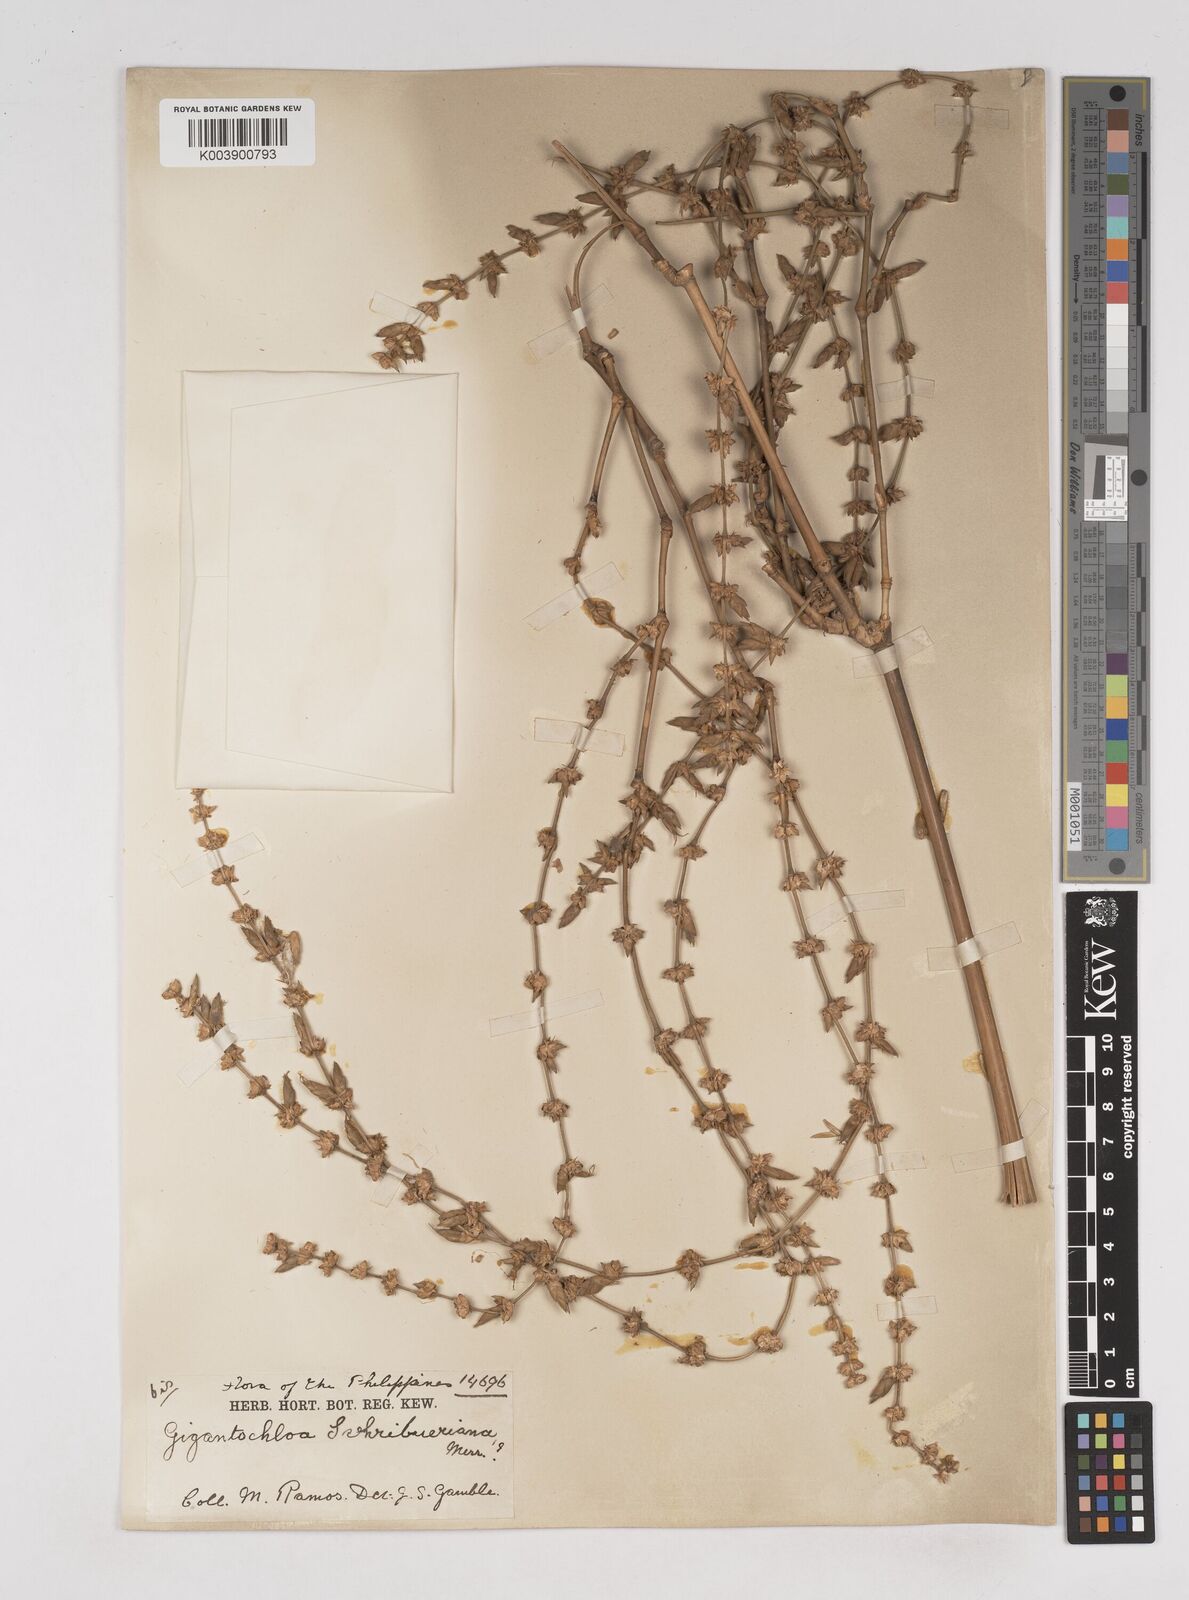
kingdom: Plantae
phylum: Tracheophyta
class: Liliopsida
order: Poales
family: Poaceae
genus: Gigantochloa
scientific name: Gigantochloa levis
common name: Smooth-shoot gigantochloa
